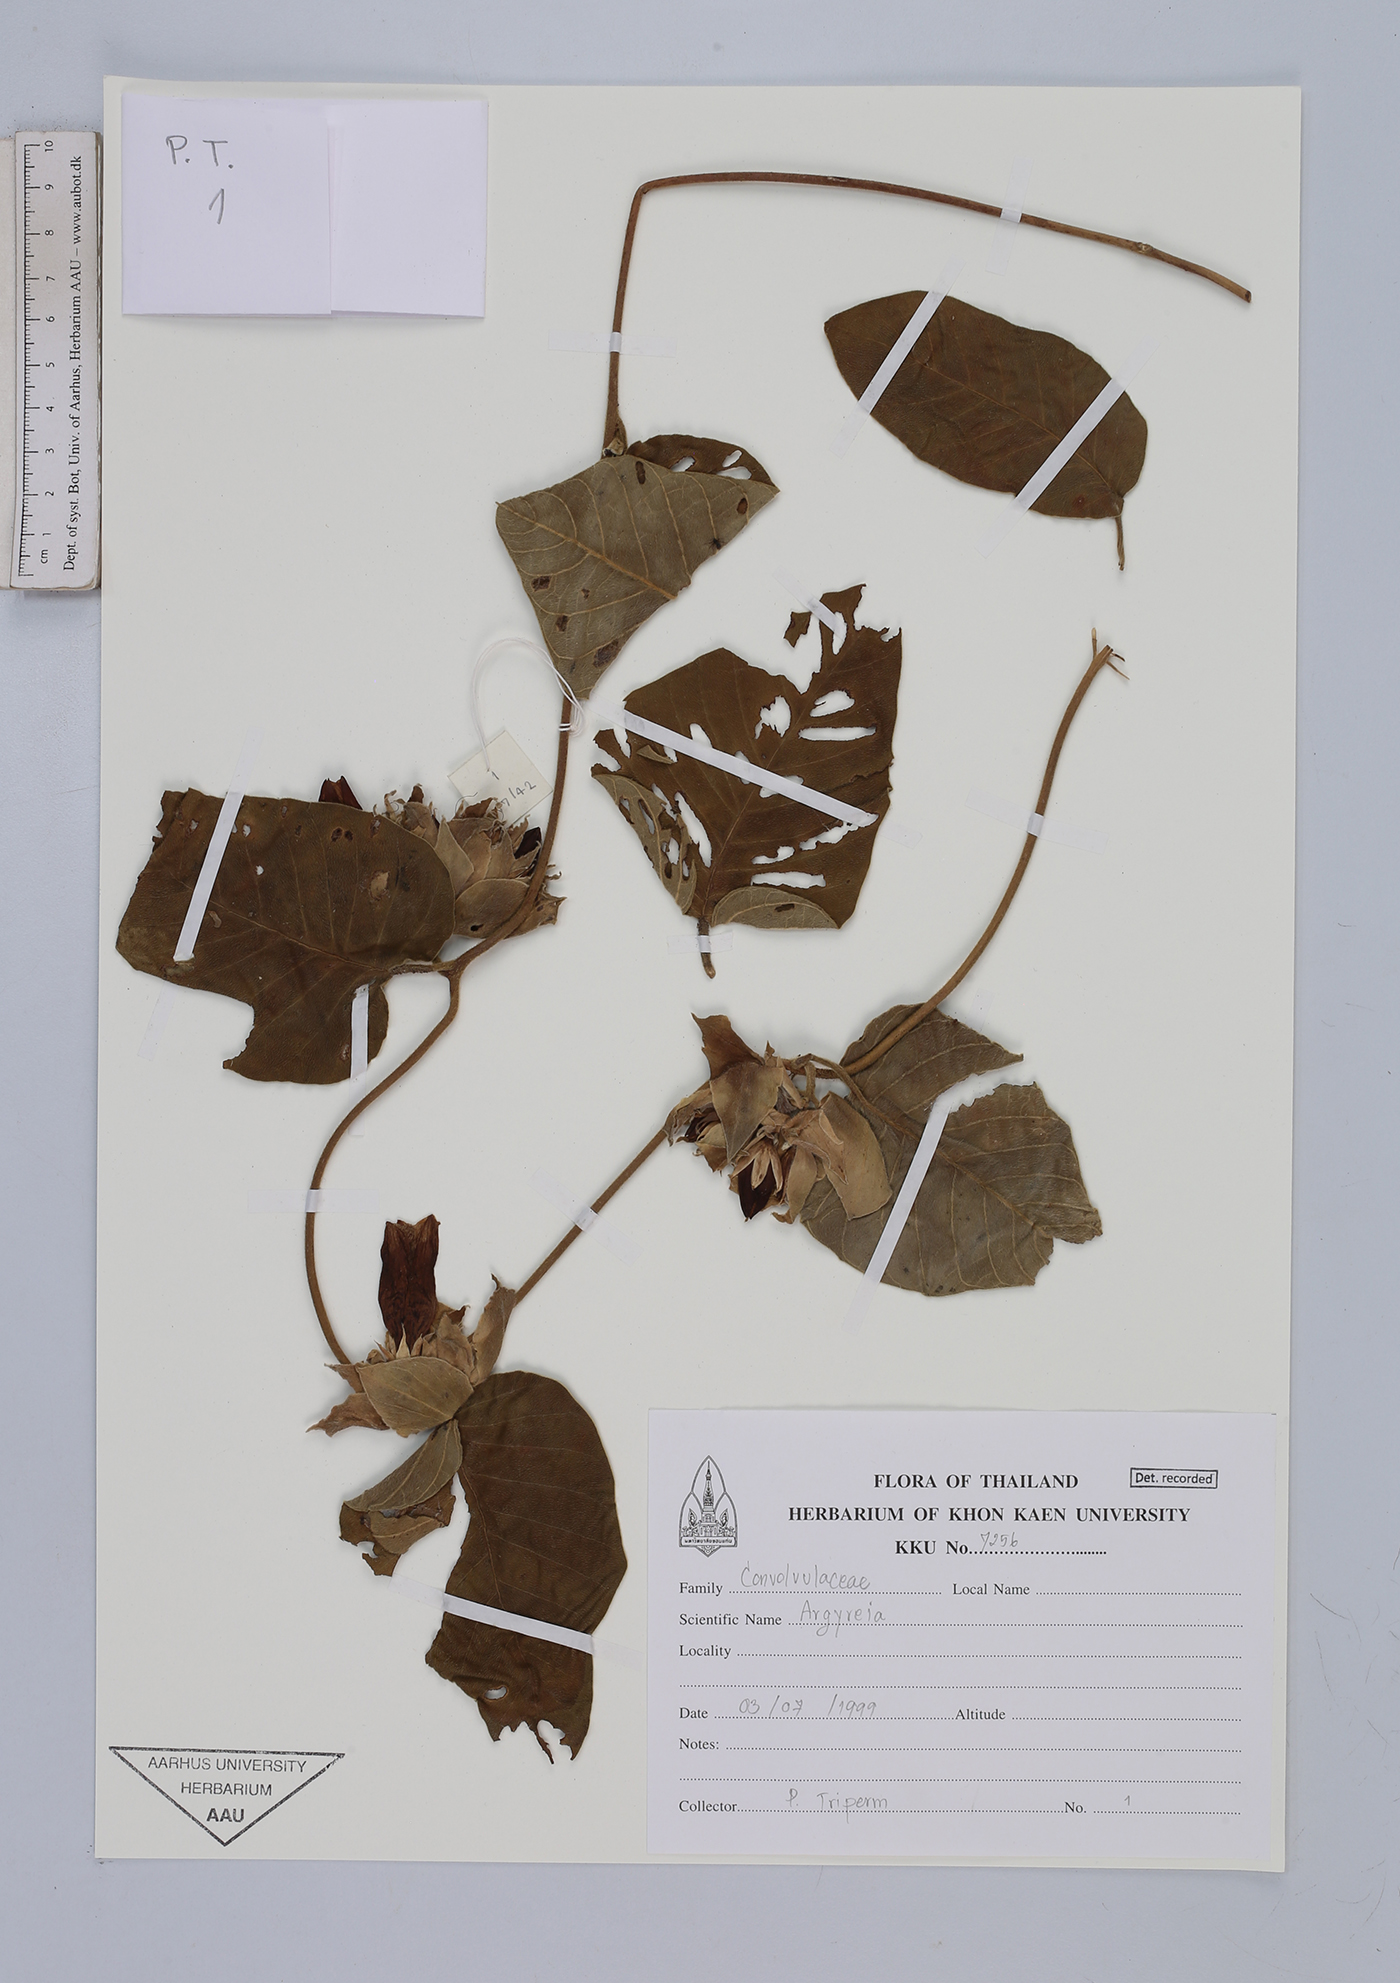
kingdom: Plantae
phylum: Tracheophyta
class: Magnoliopsida
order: Solanales
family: Convolvulaceae
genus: Argyreia
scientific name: Argyreia
